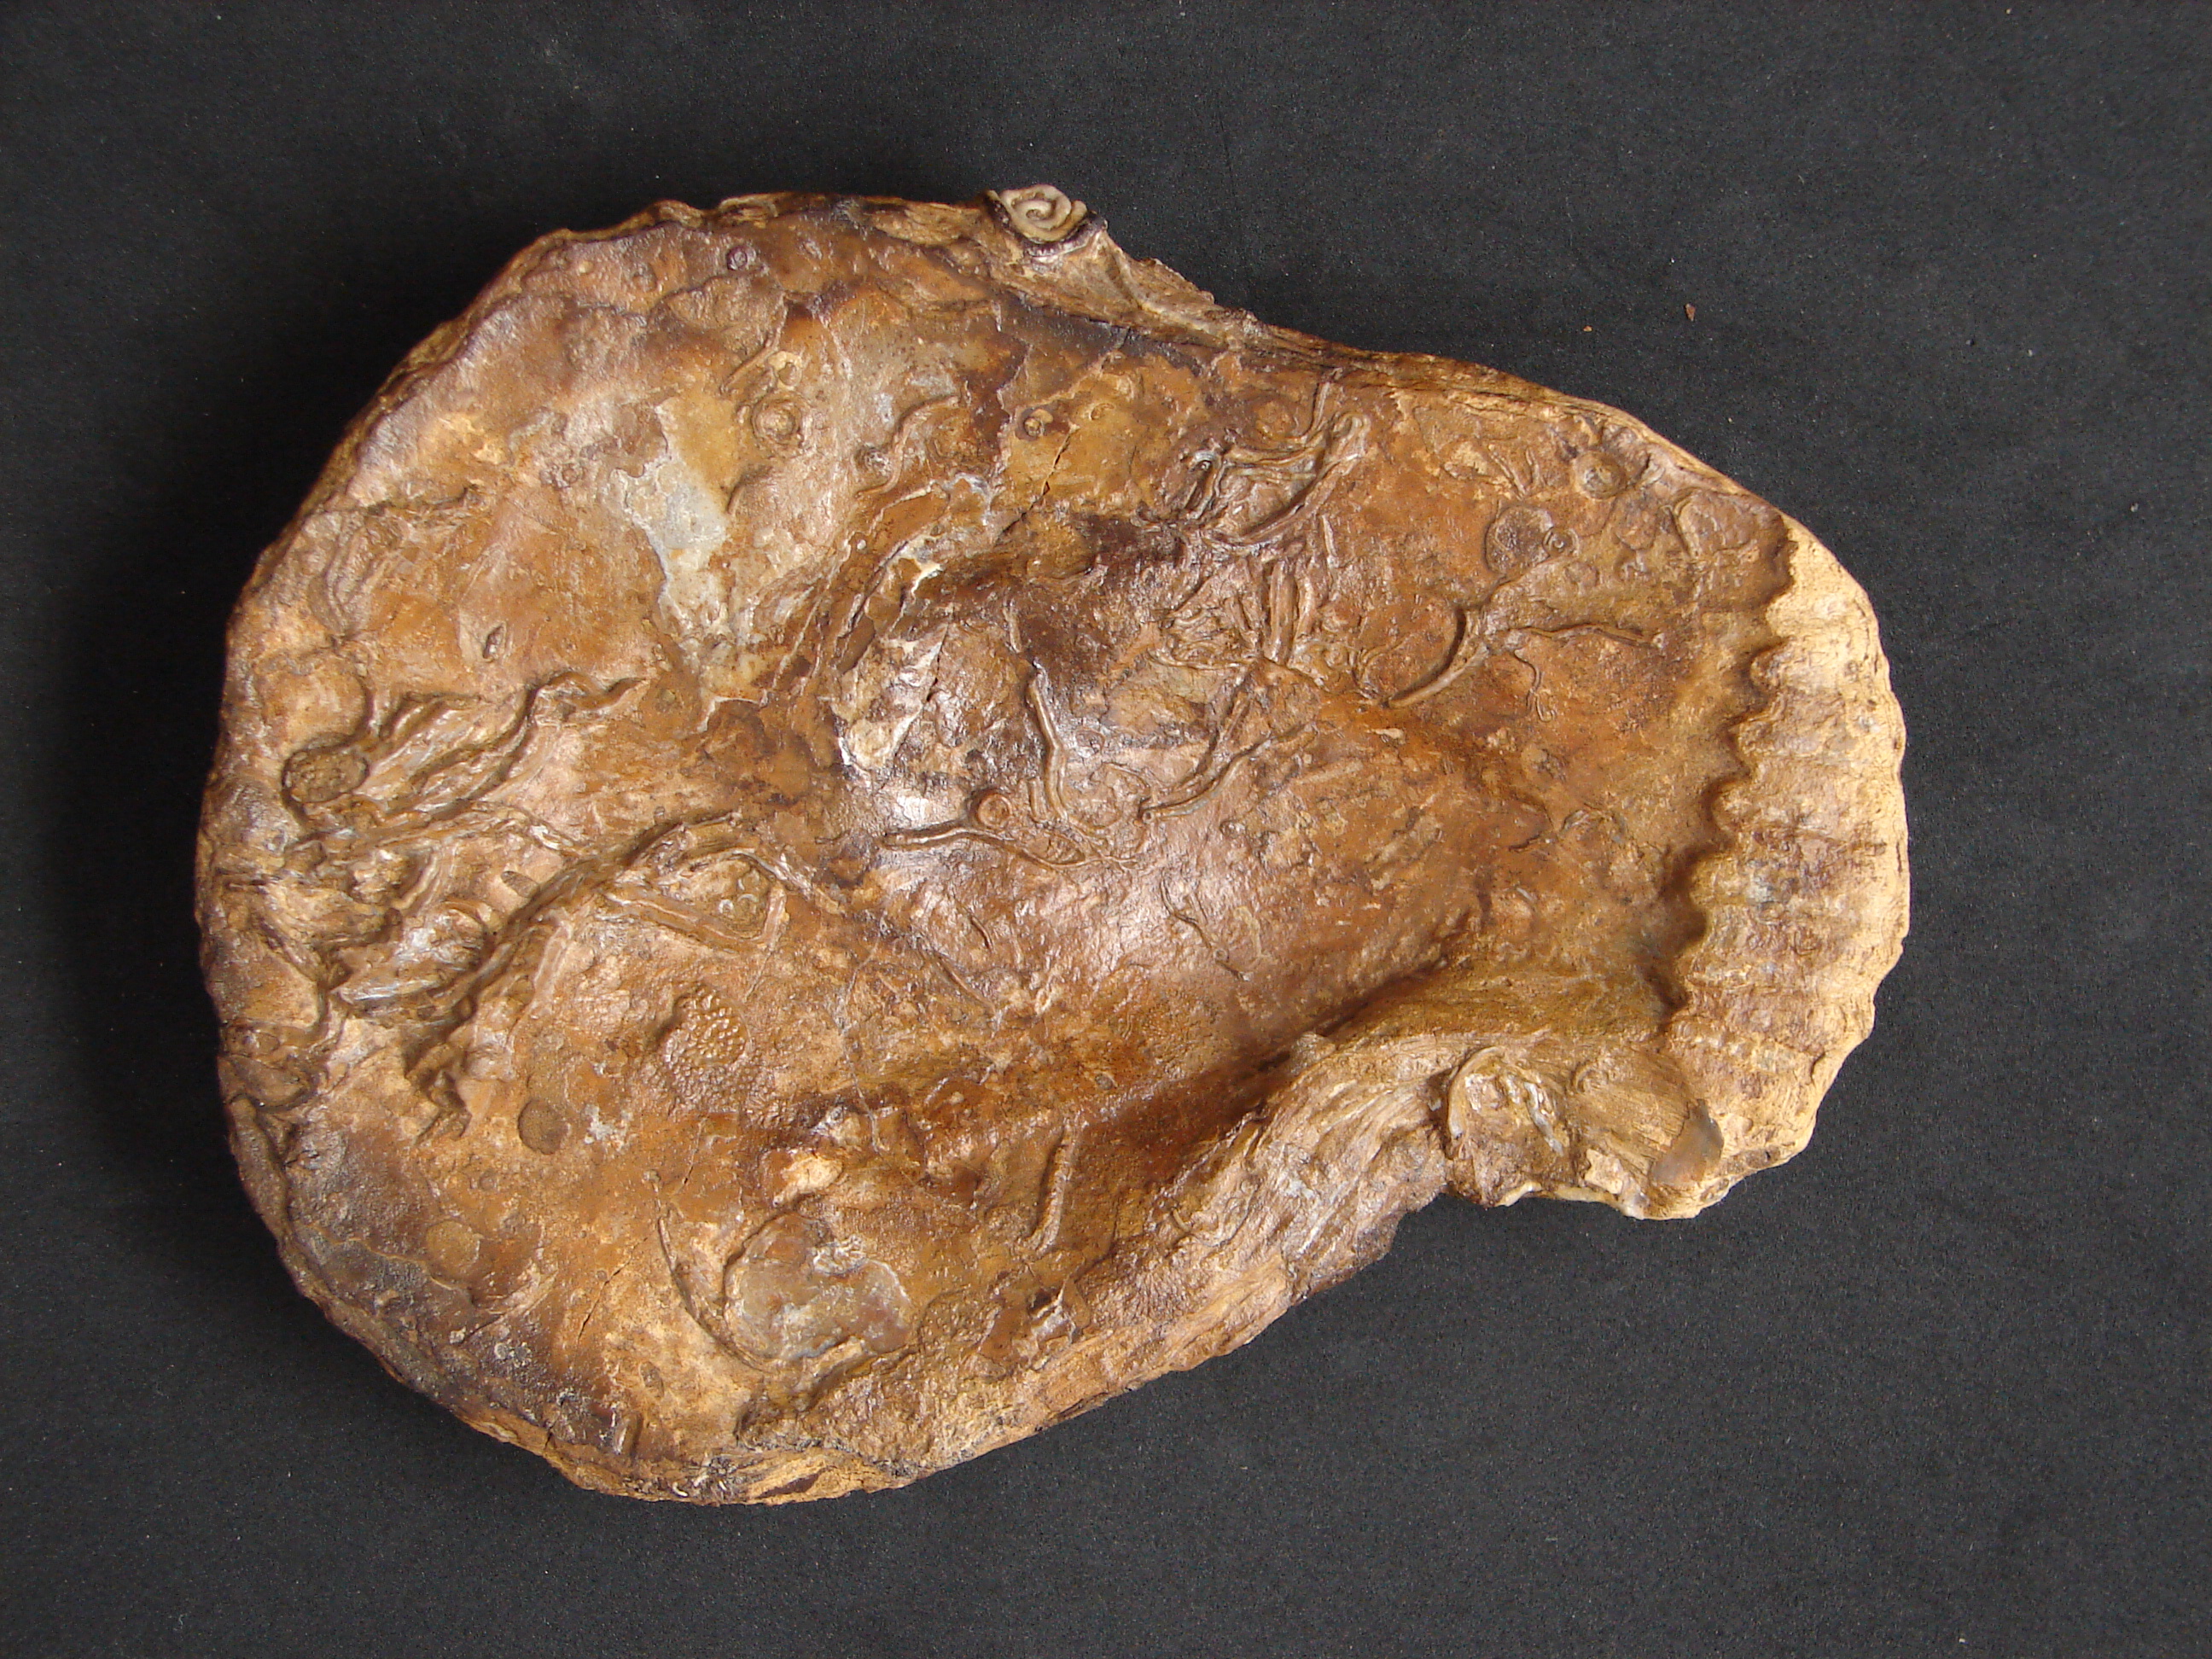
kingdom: Animalia
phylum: Mollusca
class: Bivalvia
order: Ostreida
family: Ostreidae
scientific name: Ostreidae
